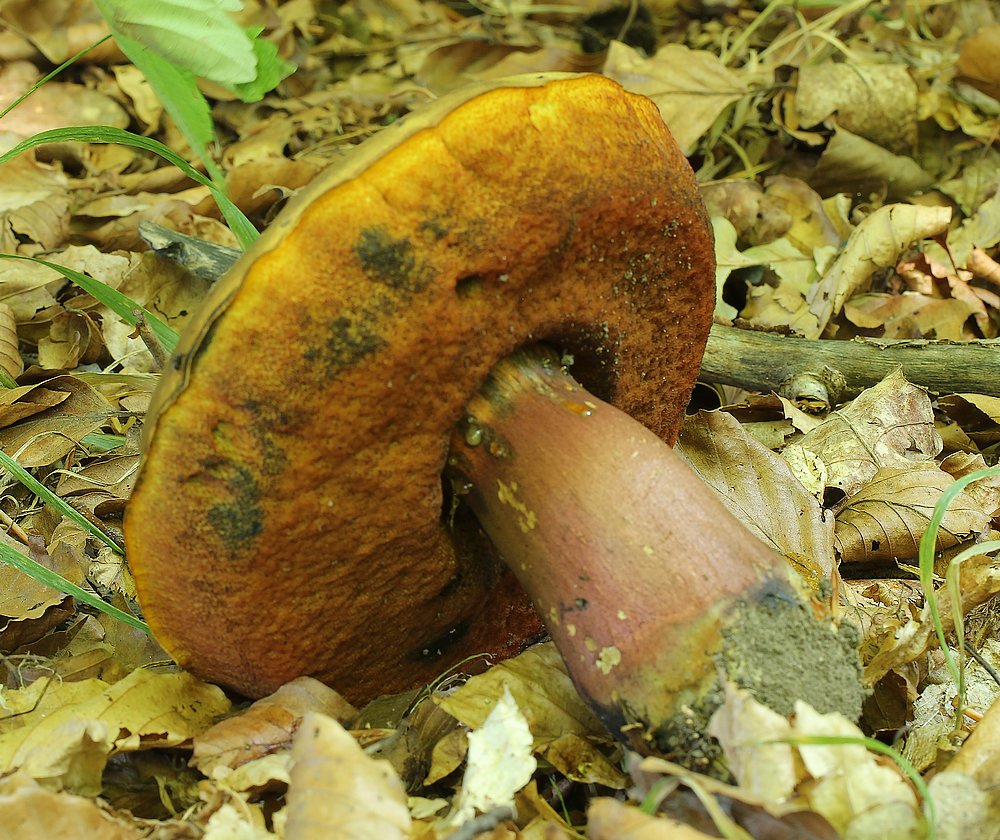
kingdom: Fungi
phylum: Basidiomycota
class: Agaricomycetes
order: Boletales
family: Boletaceae
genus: Neoboletus
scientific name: Neoboletus erythropus
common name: punktstokket indigorørhat
